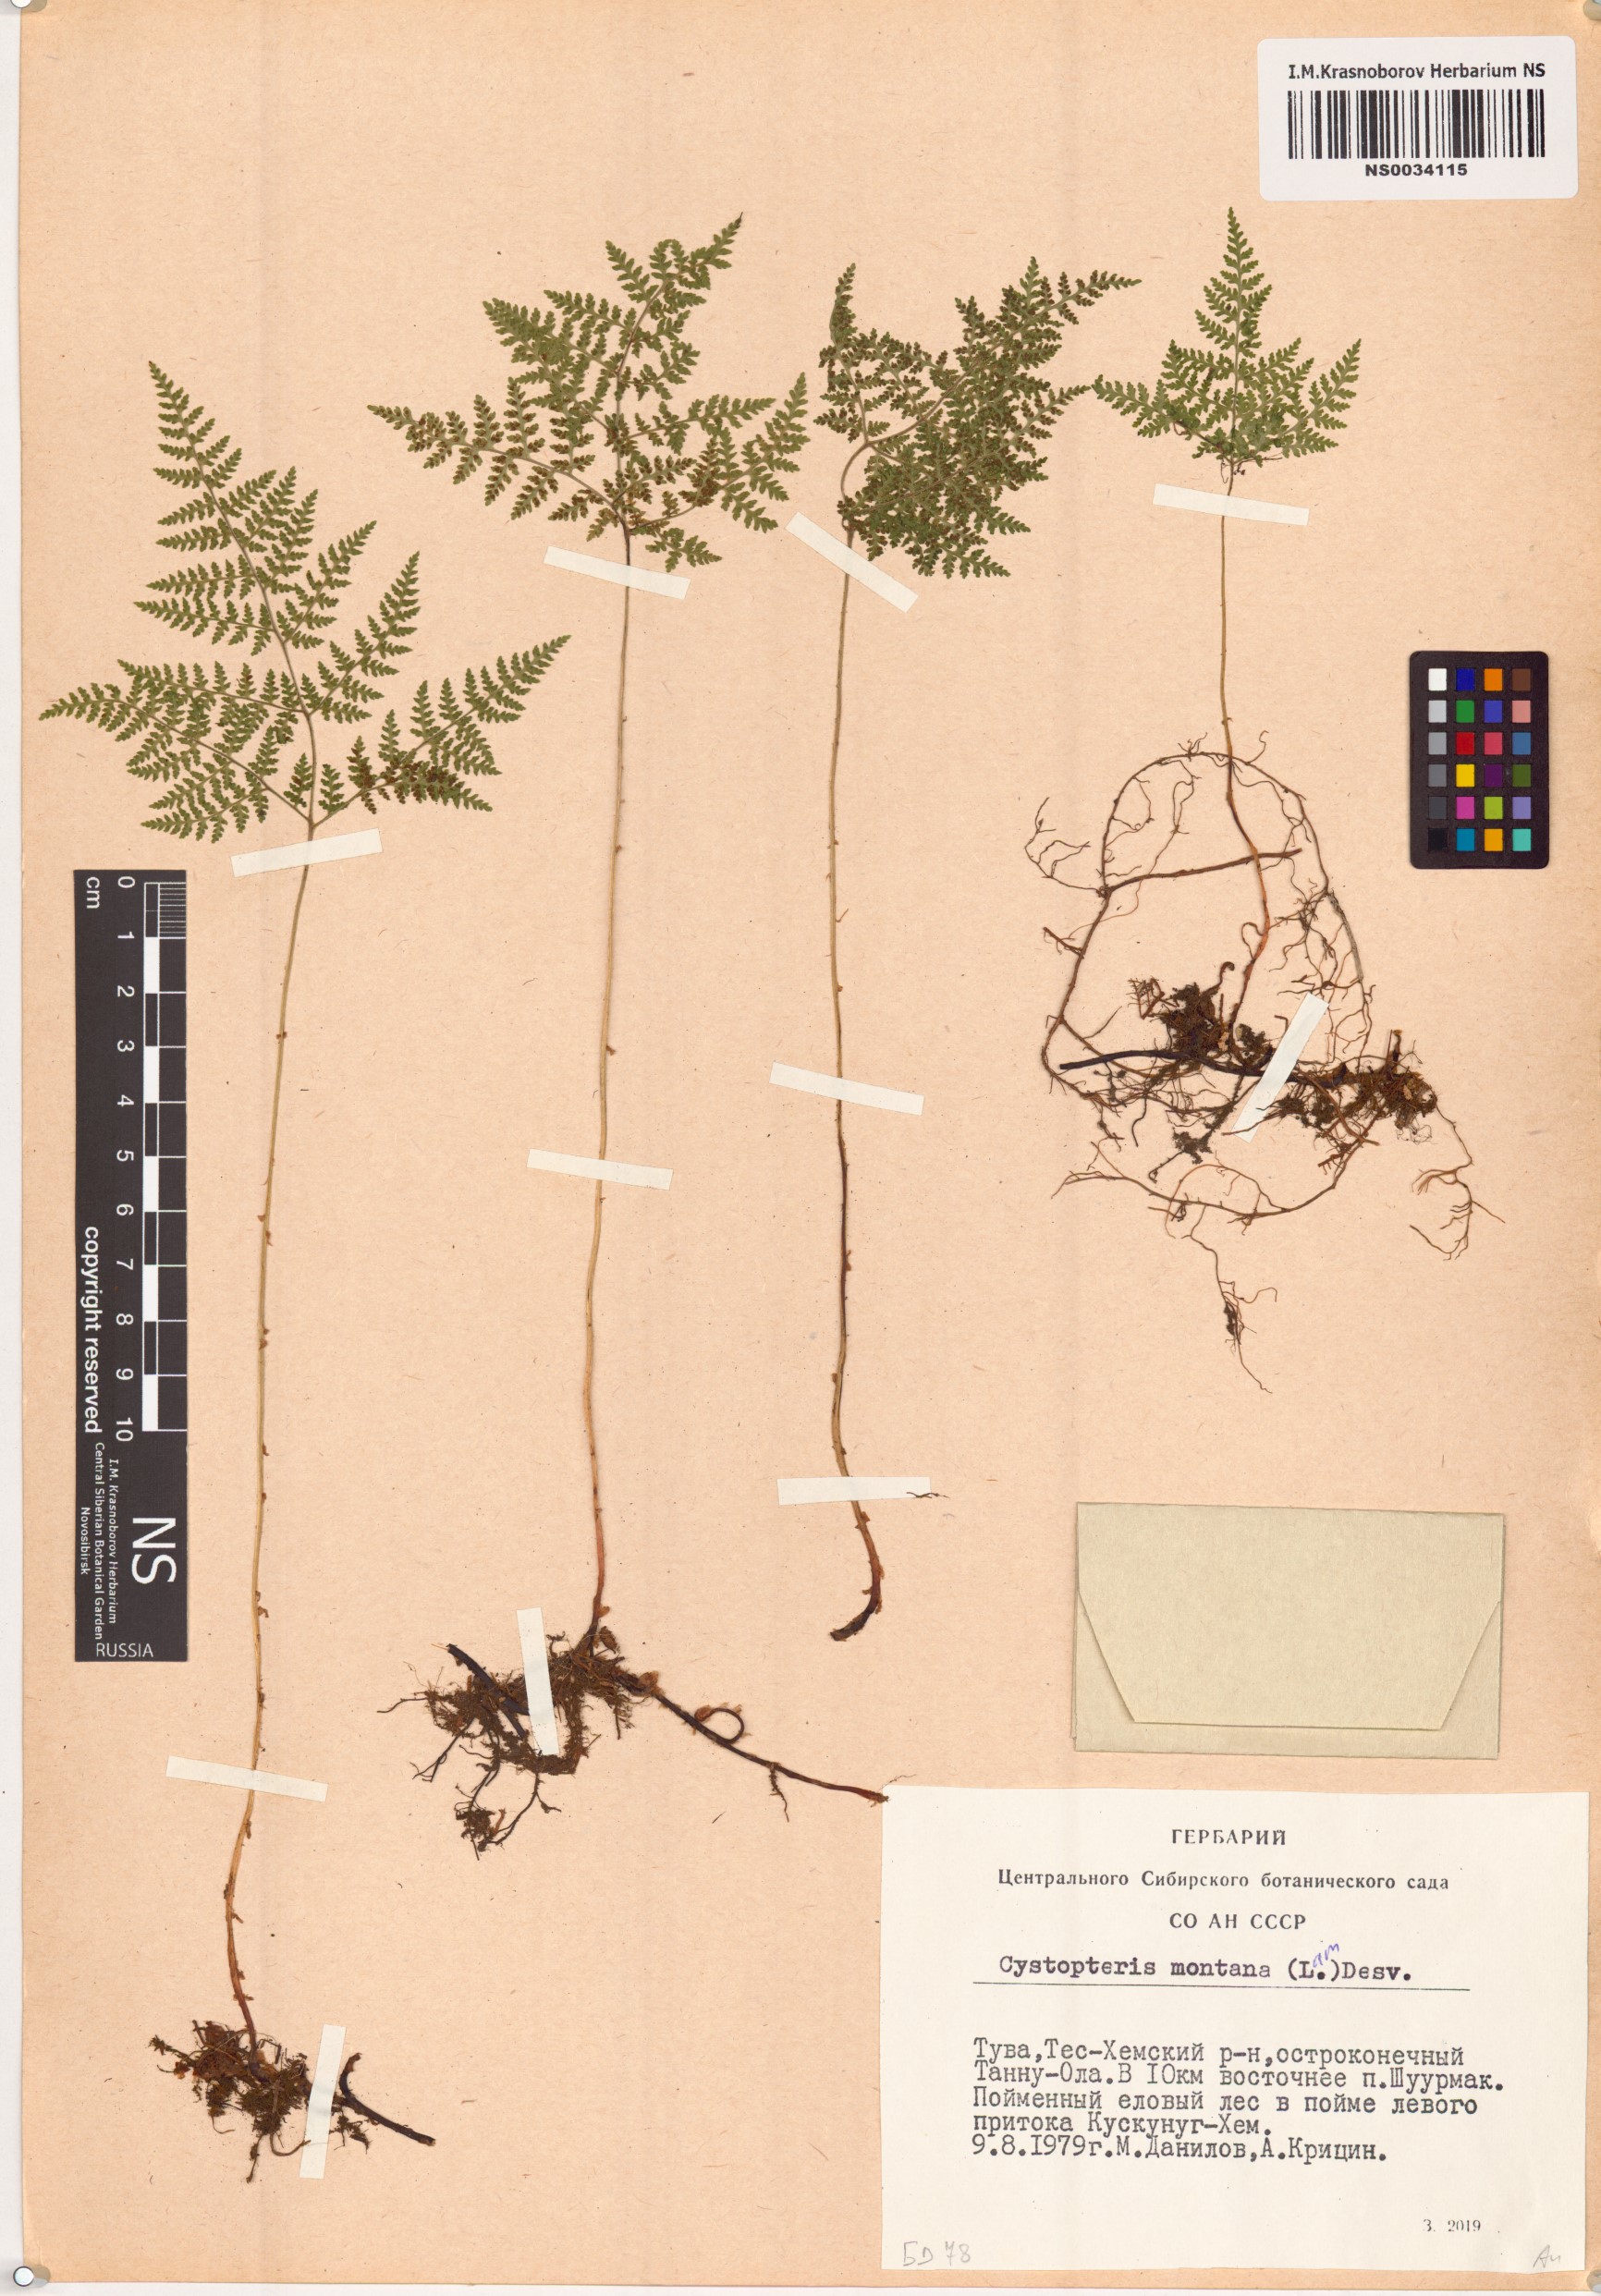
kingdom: Plantae
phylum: Tracheophyta
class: Polypodiopsida
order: Polypodiales
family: Cystopteridaceae
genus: Cystopteris
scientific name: Cystopteris montana
